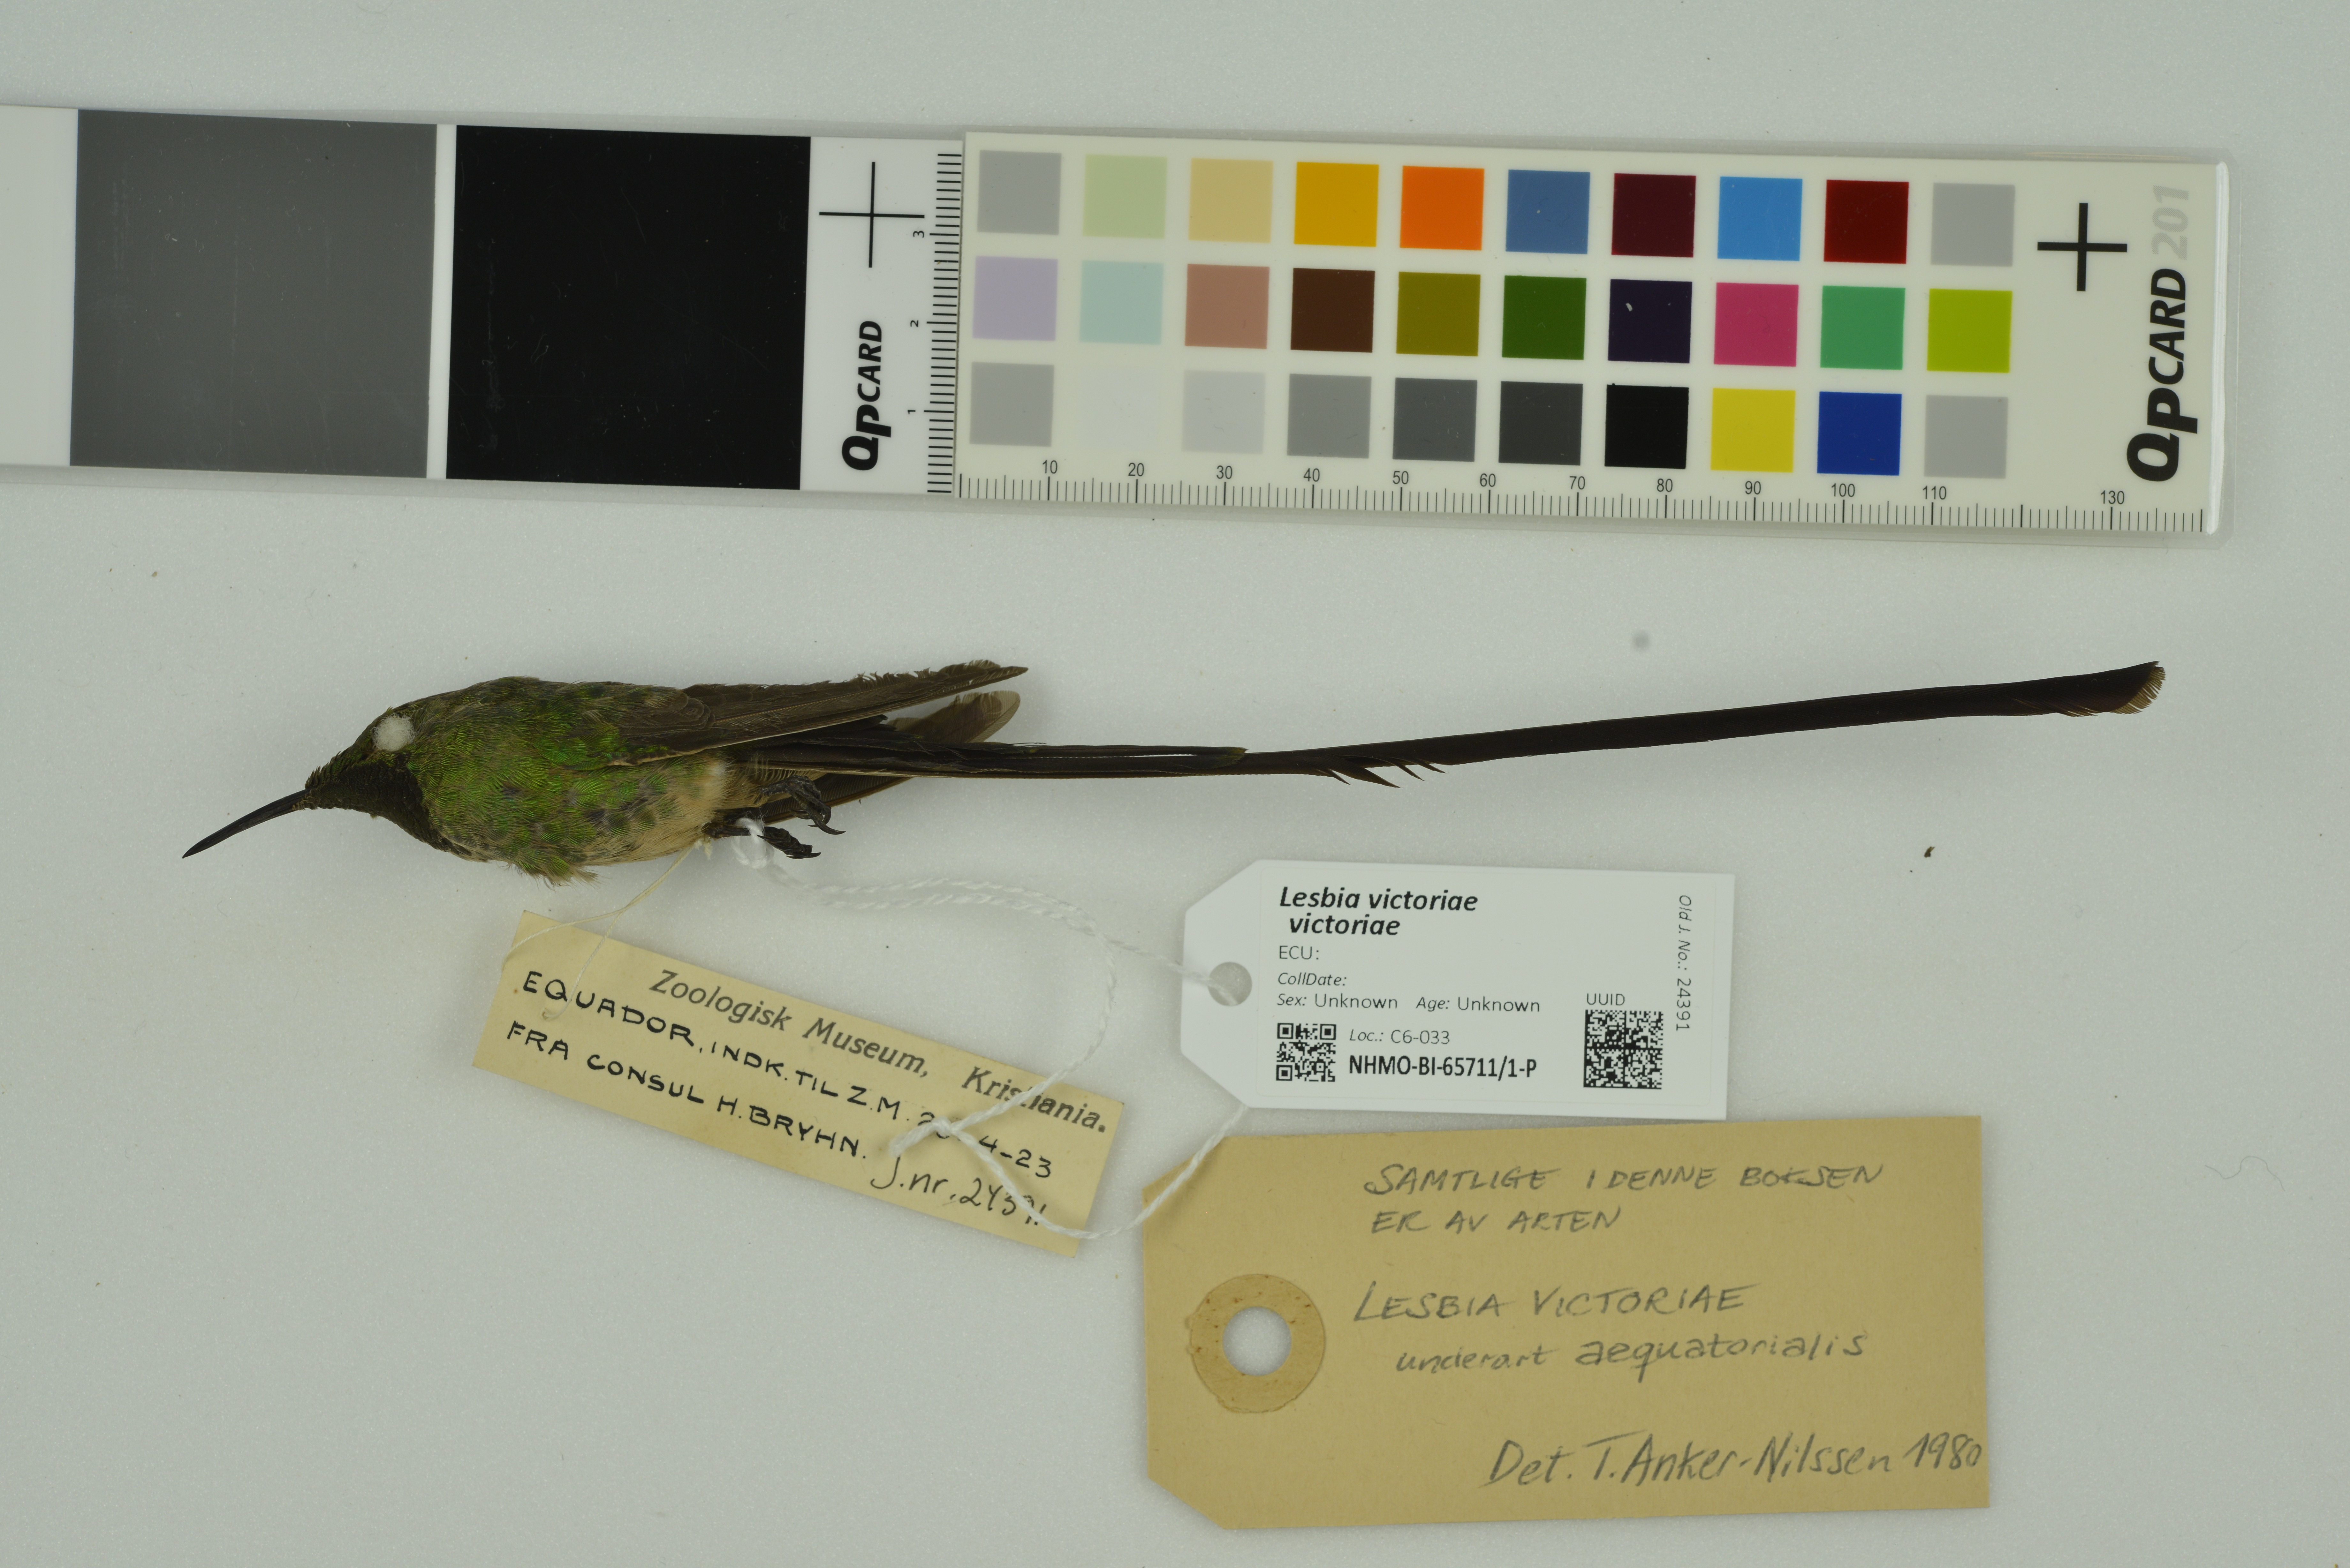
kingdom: Animalia
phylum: Chordata
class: Aves
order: Apodiformes
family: Trochilidae
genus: Lesbia
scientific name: Lesbia victoriae
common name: Black-tailed trainbearer
